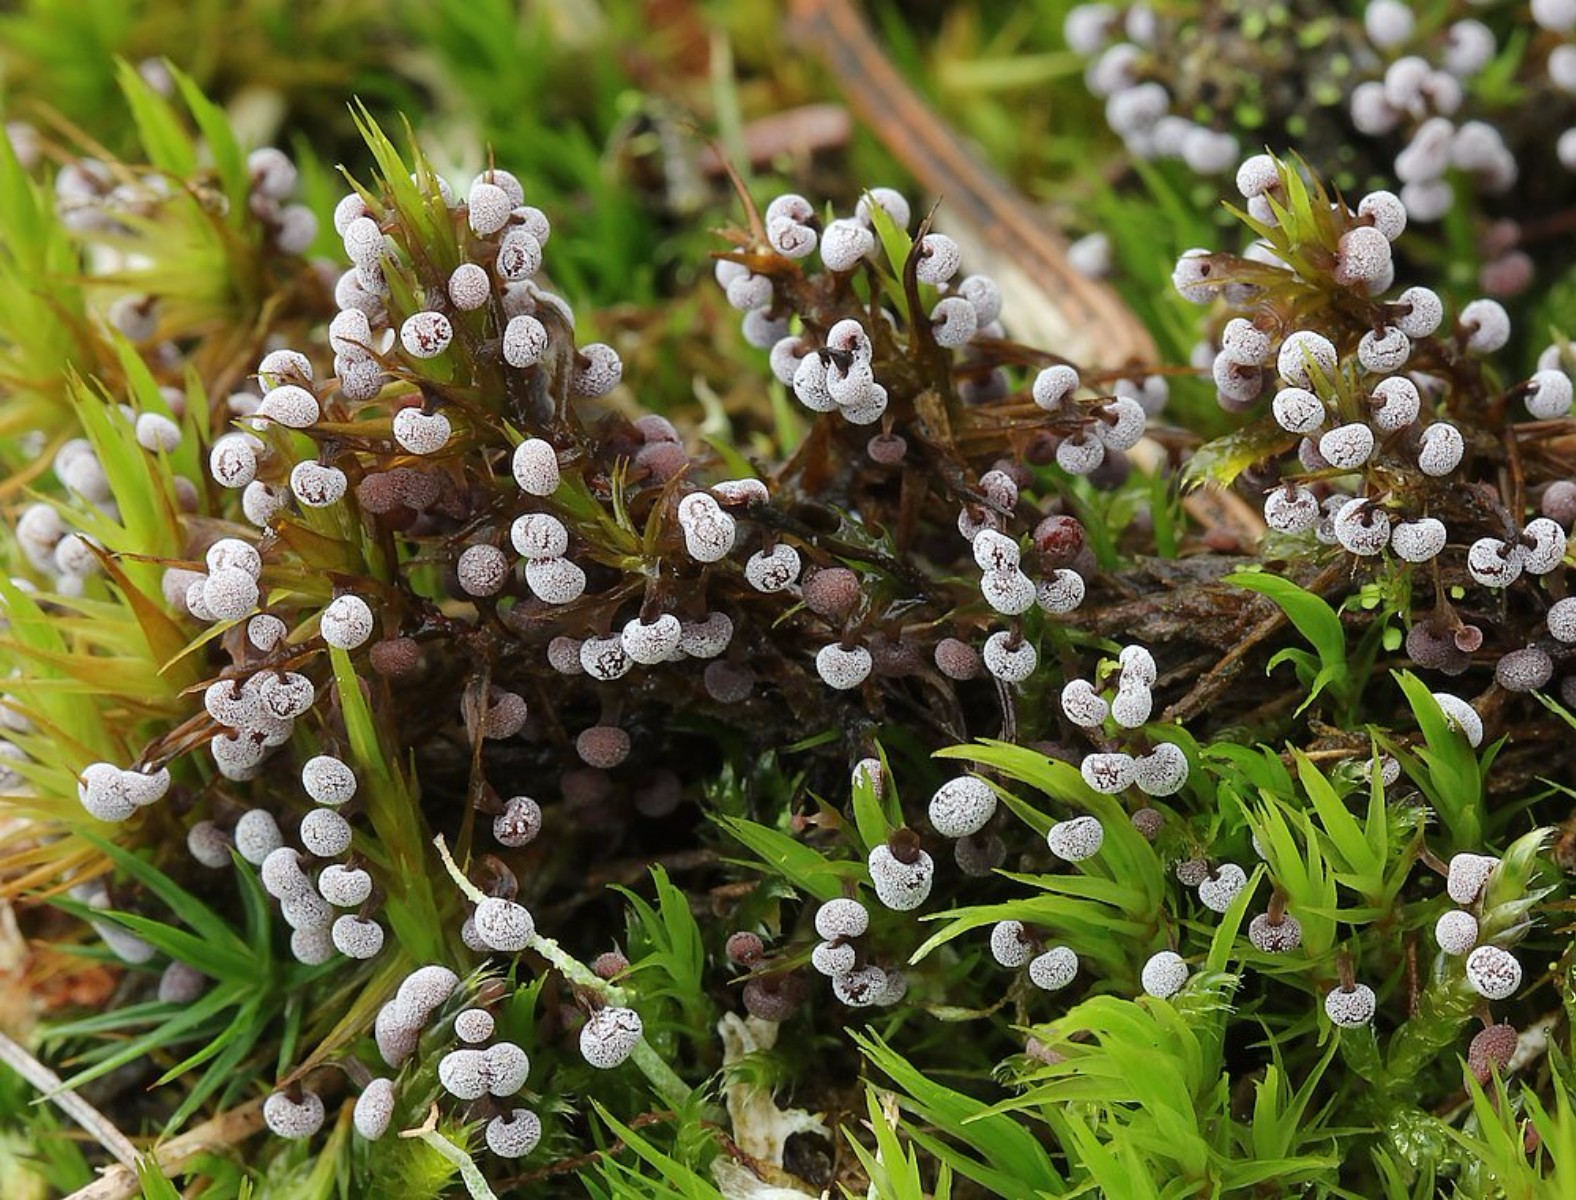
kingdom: Protozoa
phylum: Mycetozoa
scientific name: Mycetozoa
